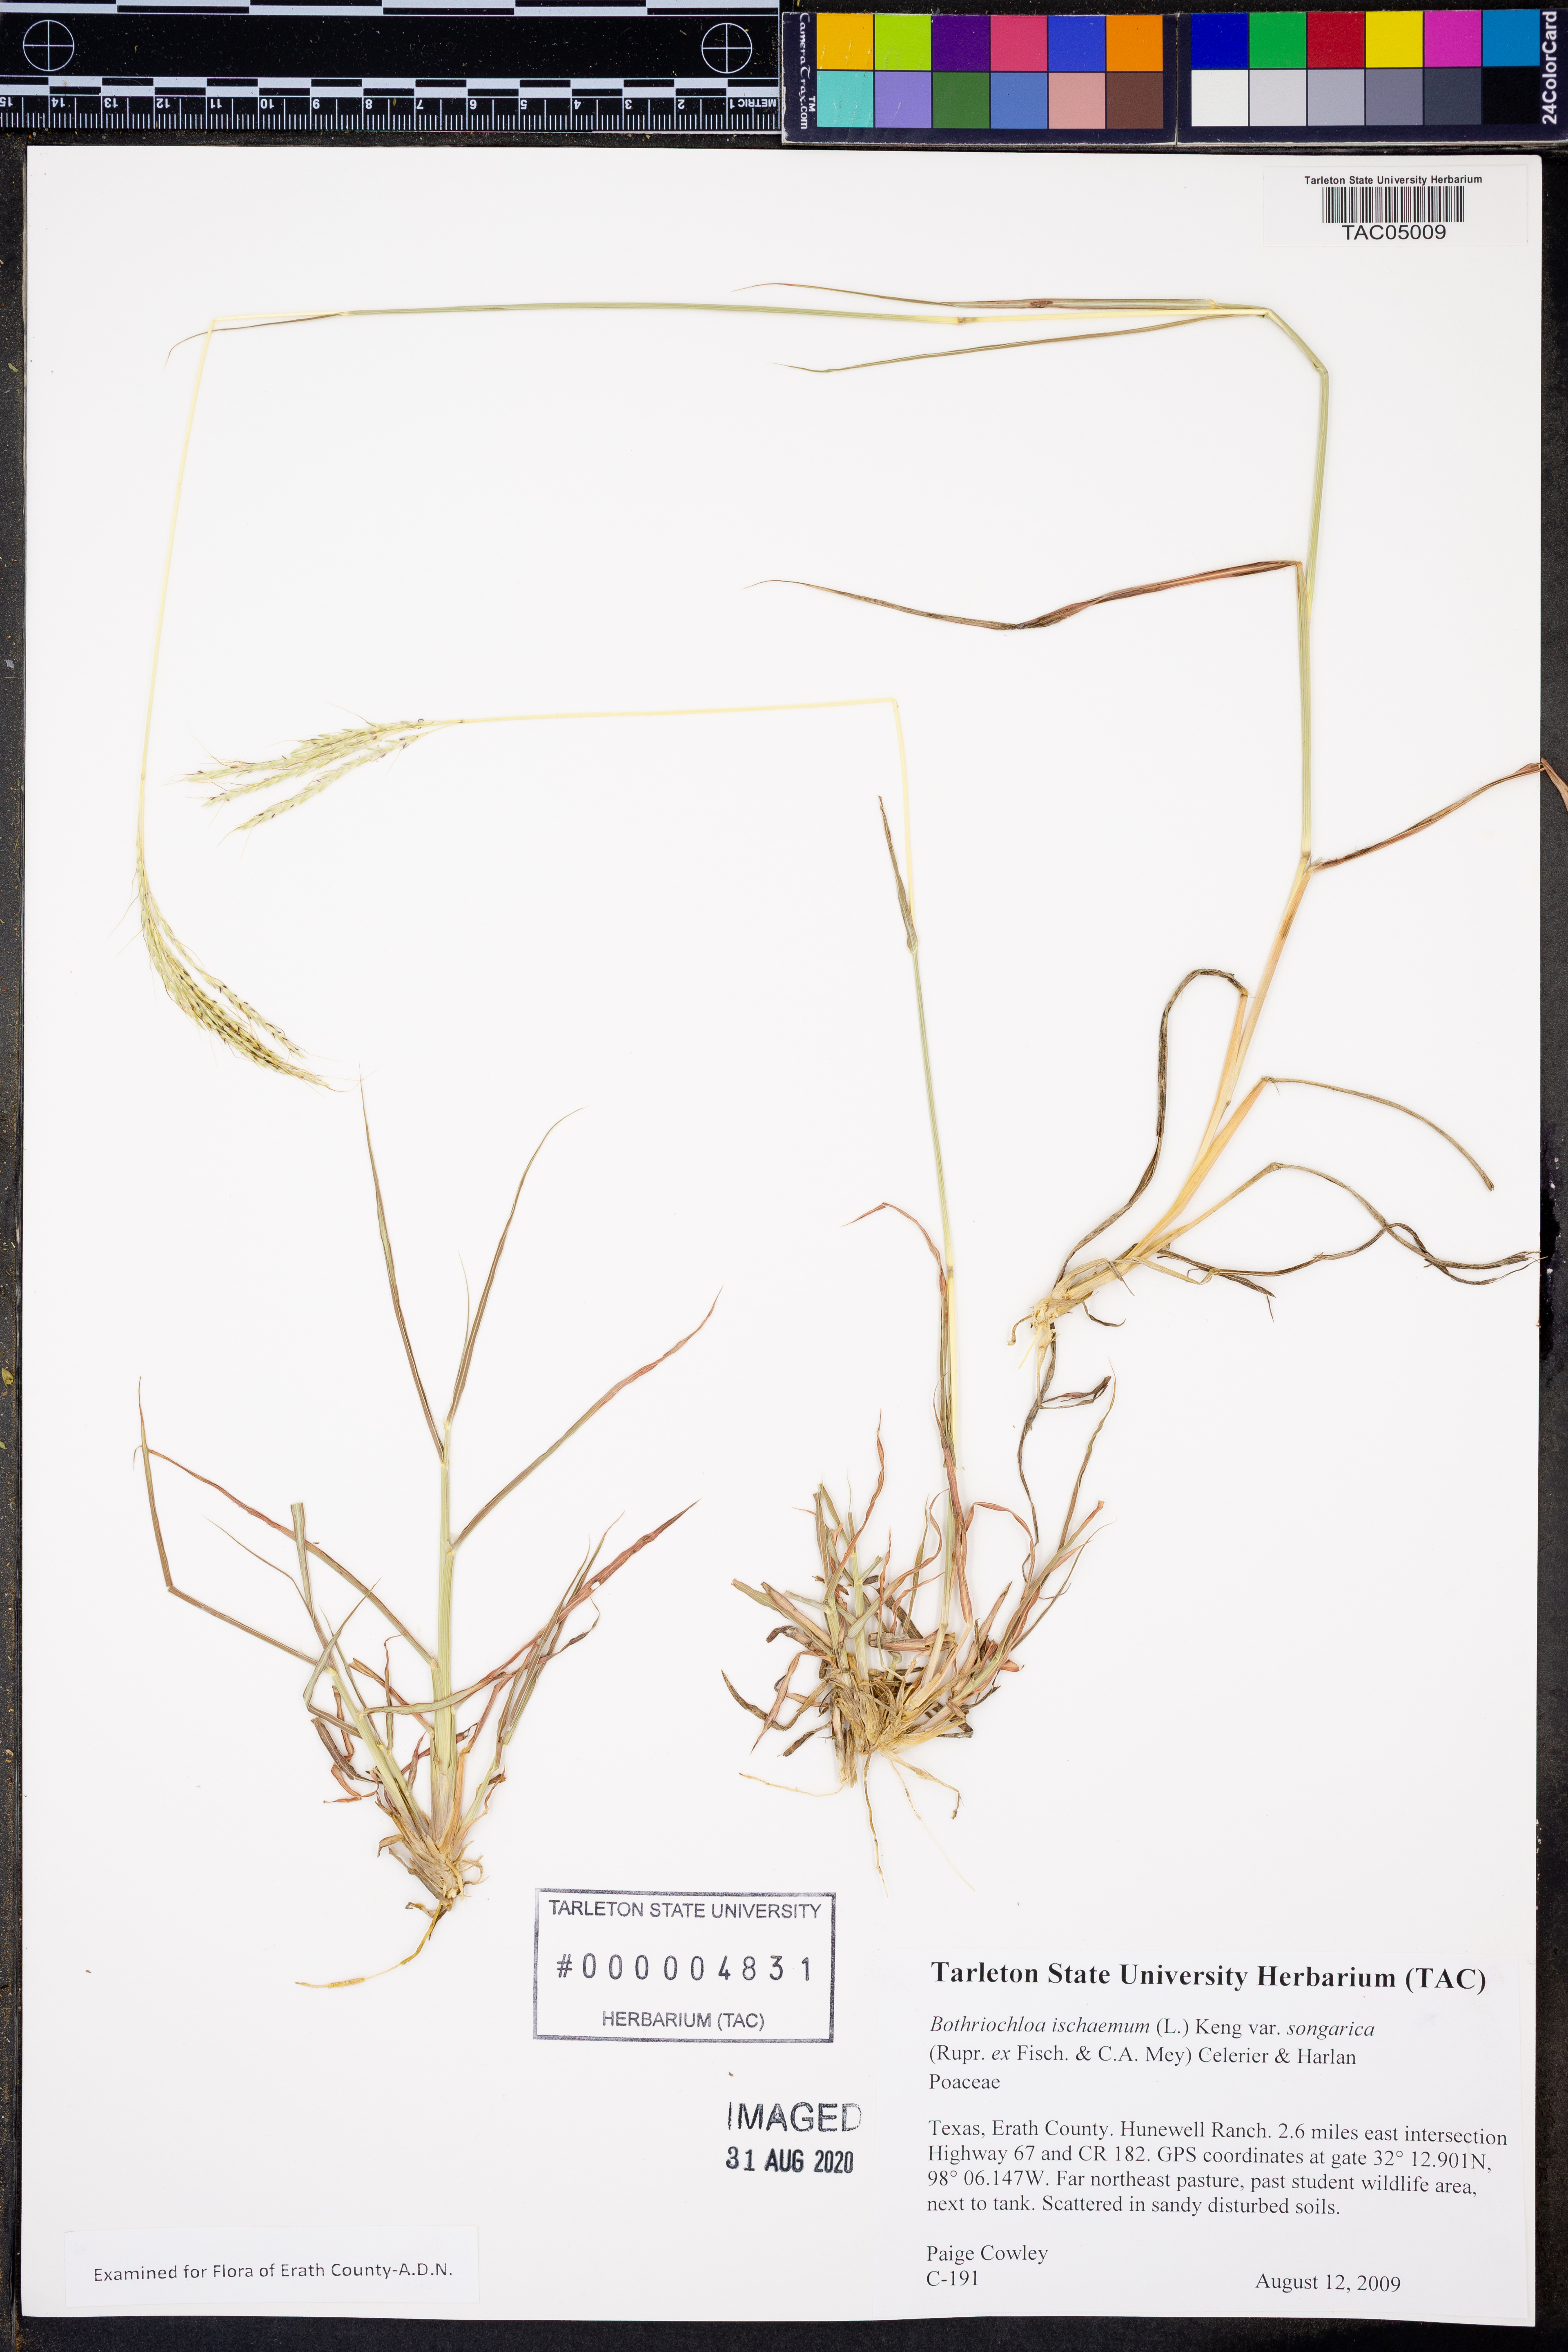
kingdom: Plantae
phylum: Tracheophyta
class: Liliopsida
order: Poales
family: Poaceae
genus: Bothriochloa
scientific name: Bothriochloa ischaemum
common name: Yellow bluestem
